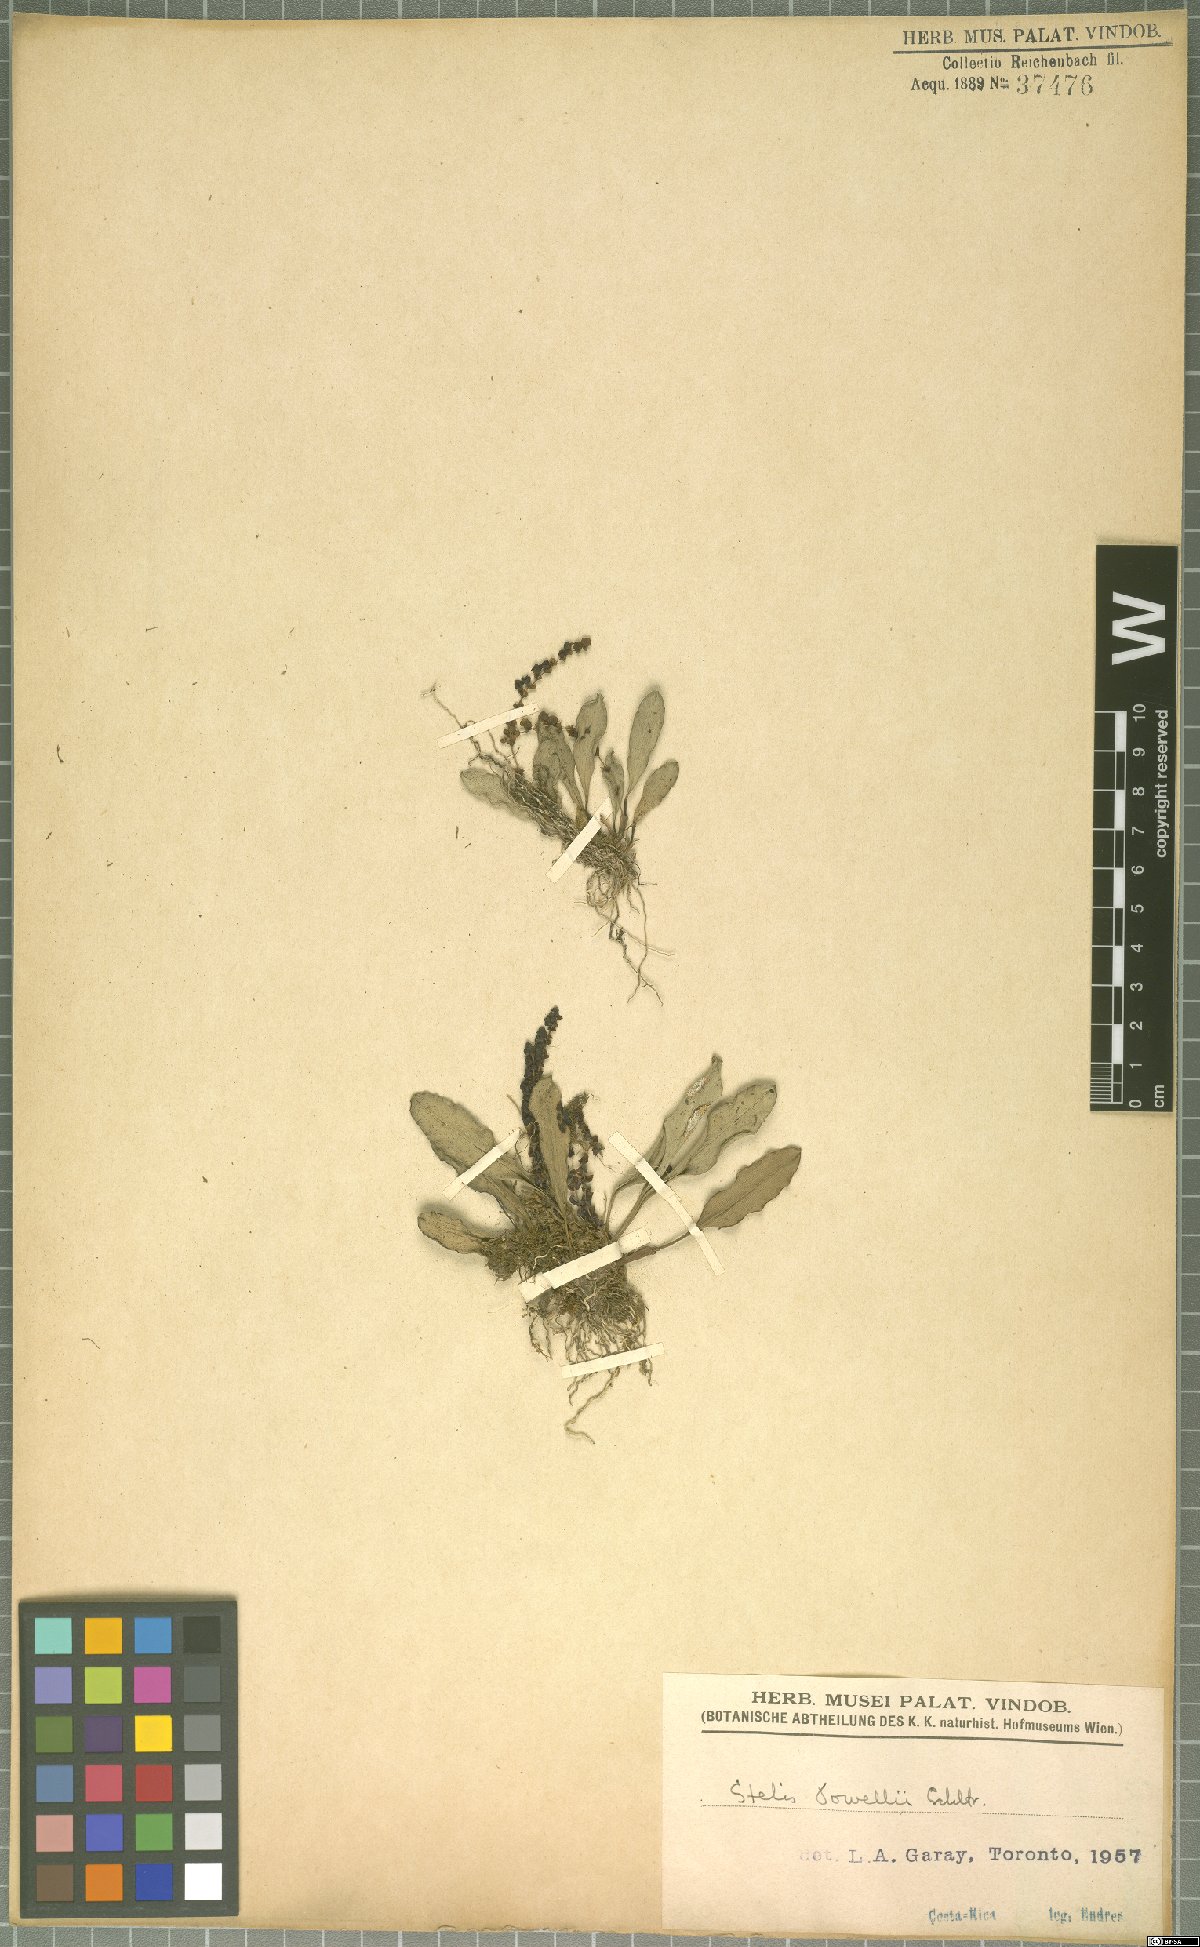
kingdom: Plantae
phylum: Tracheophyta
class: Liliopsida
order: Asparagales
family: Orchidaceae
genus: Stelis
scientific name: Stelis powellii
